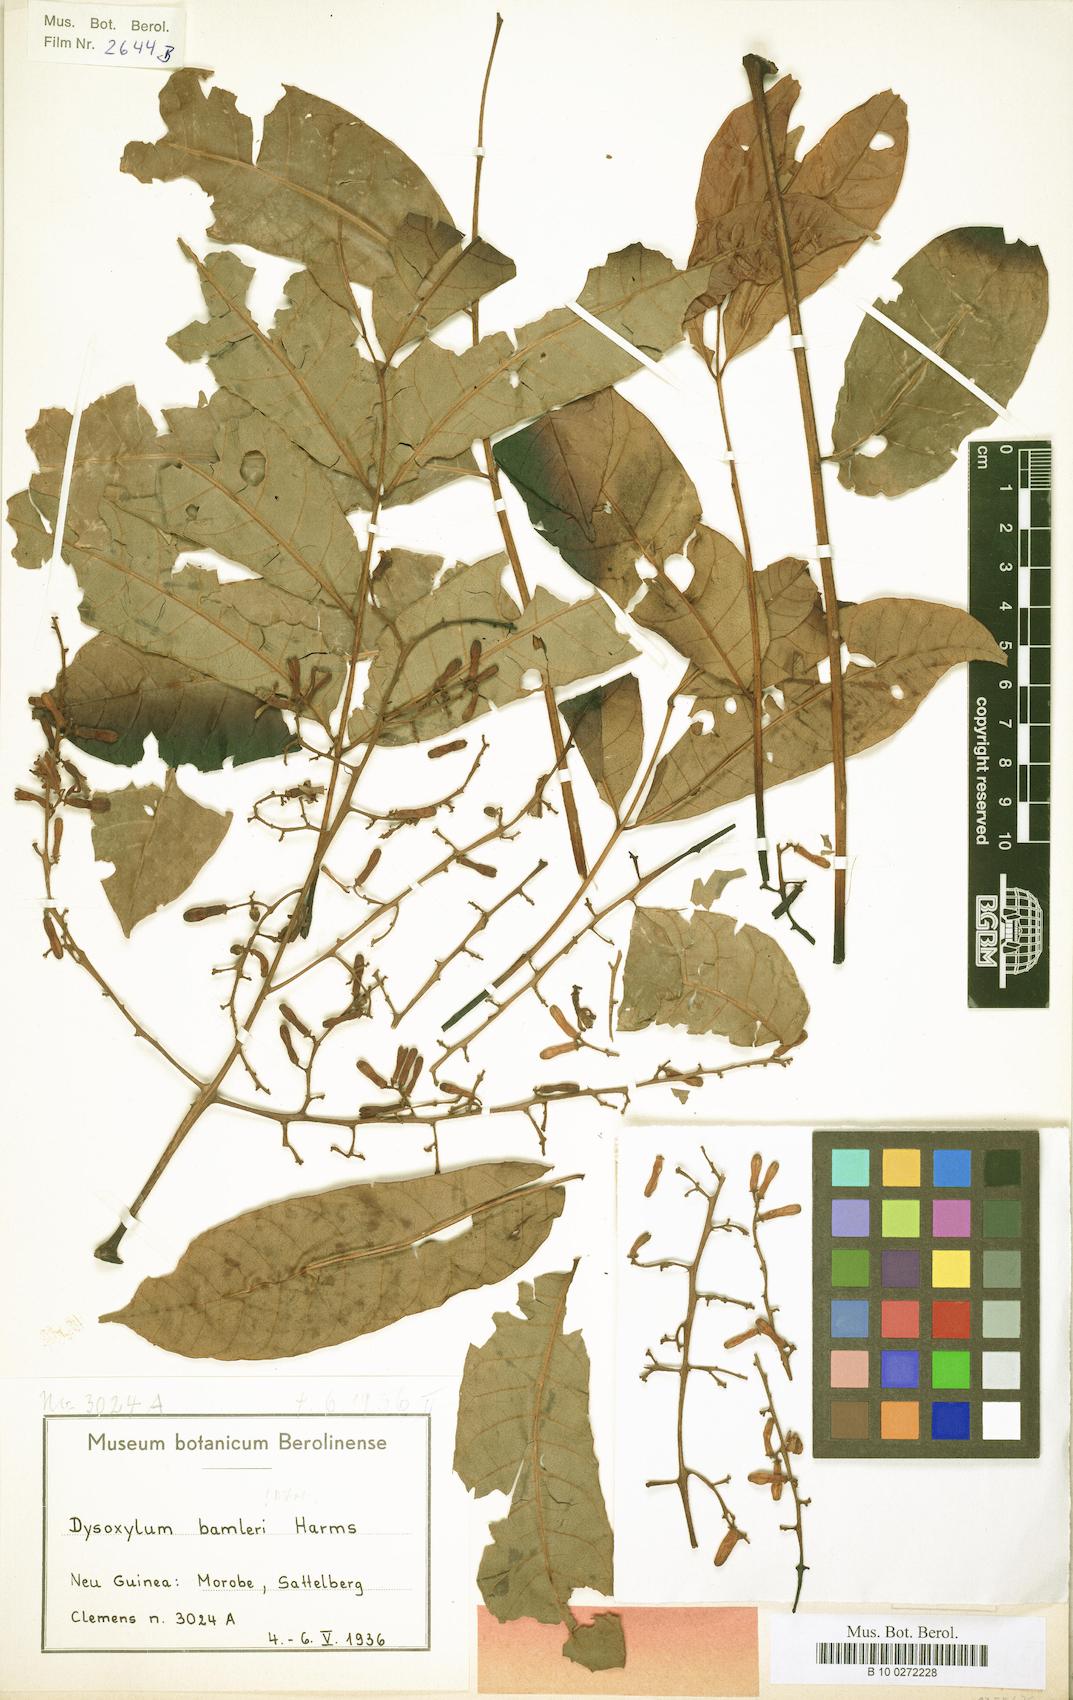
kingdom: Plantae
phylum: Tracheophyta
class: Magnoliopsida
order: Sapindales
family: Meliaceae
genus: Prasoxylon
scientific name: Prasoxylon hapalanthum
